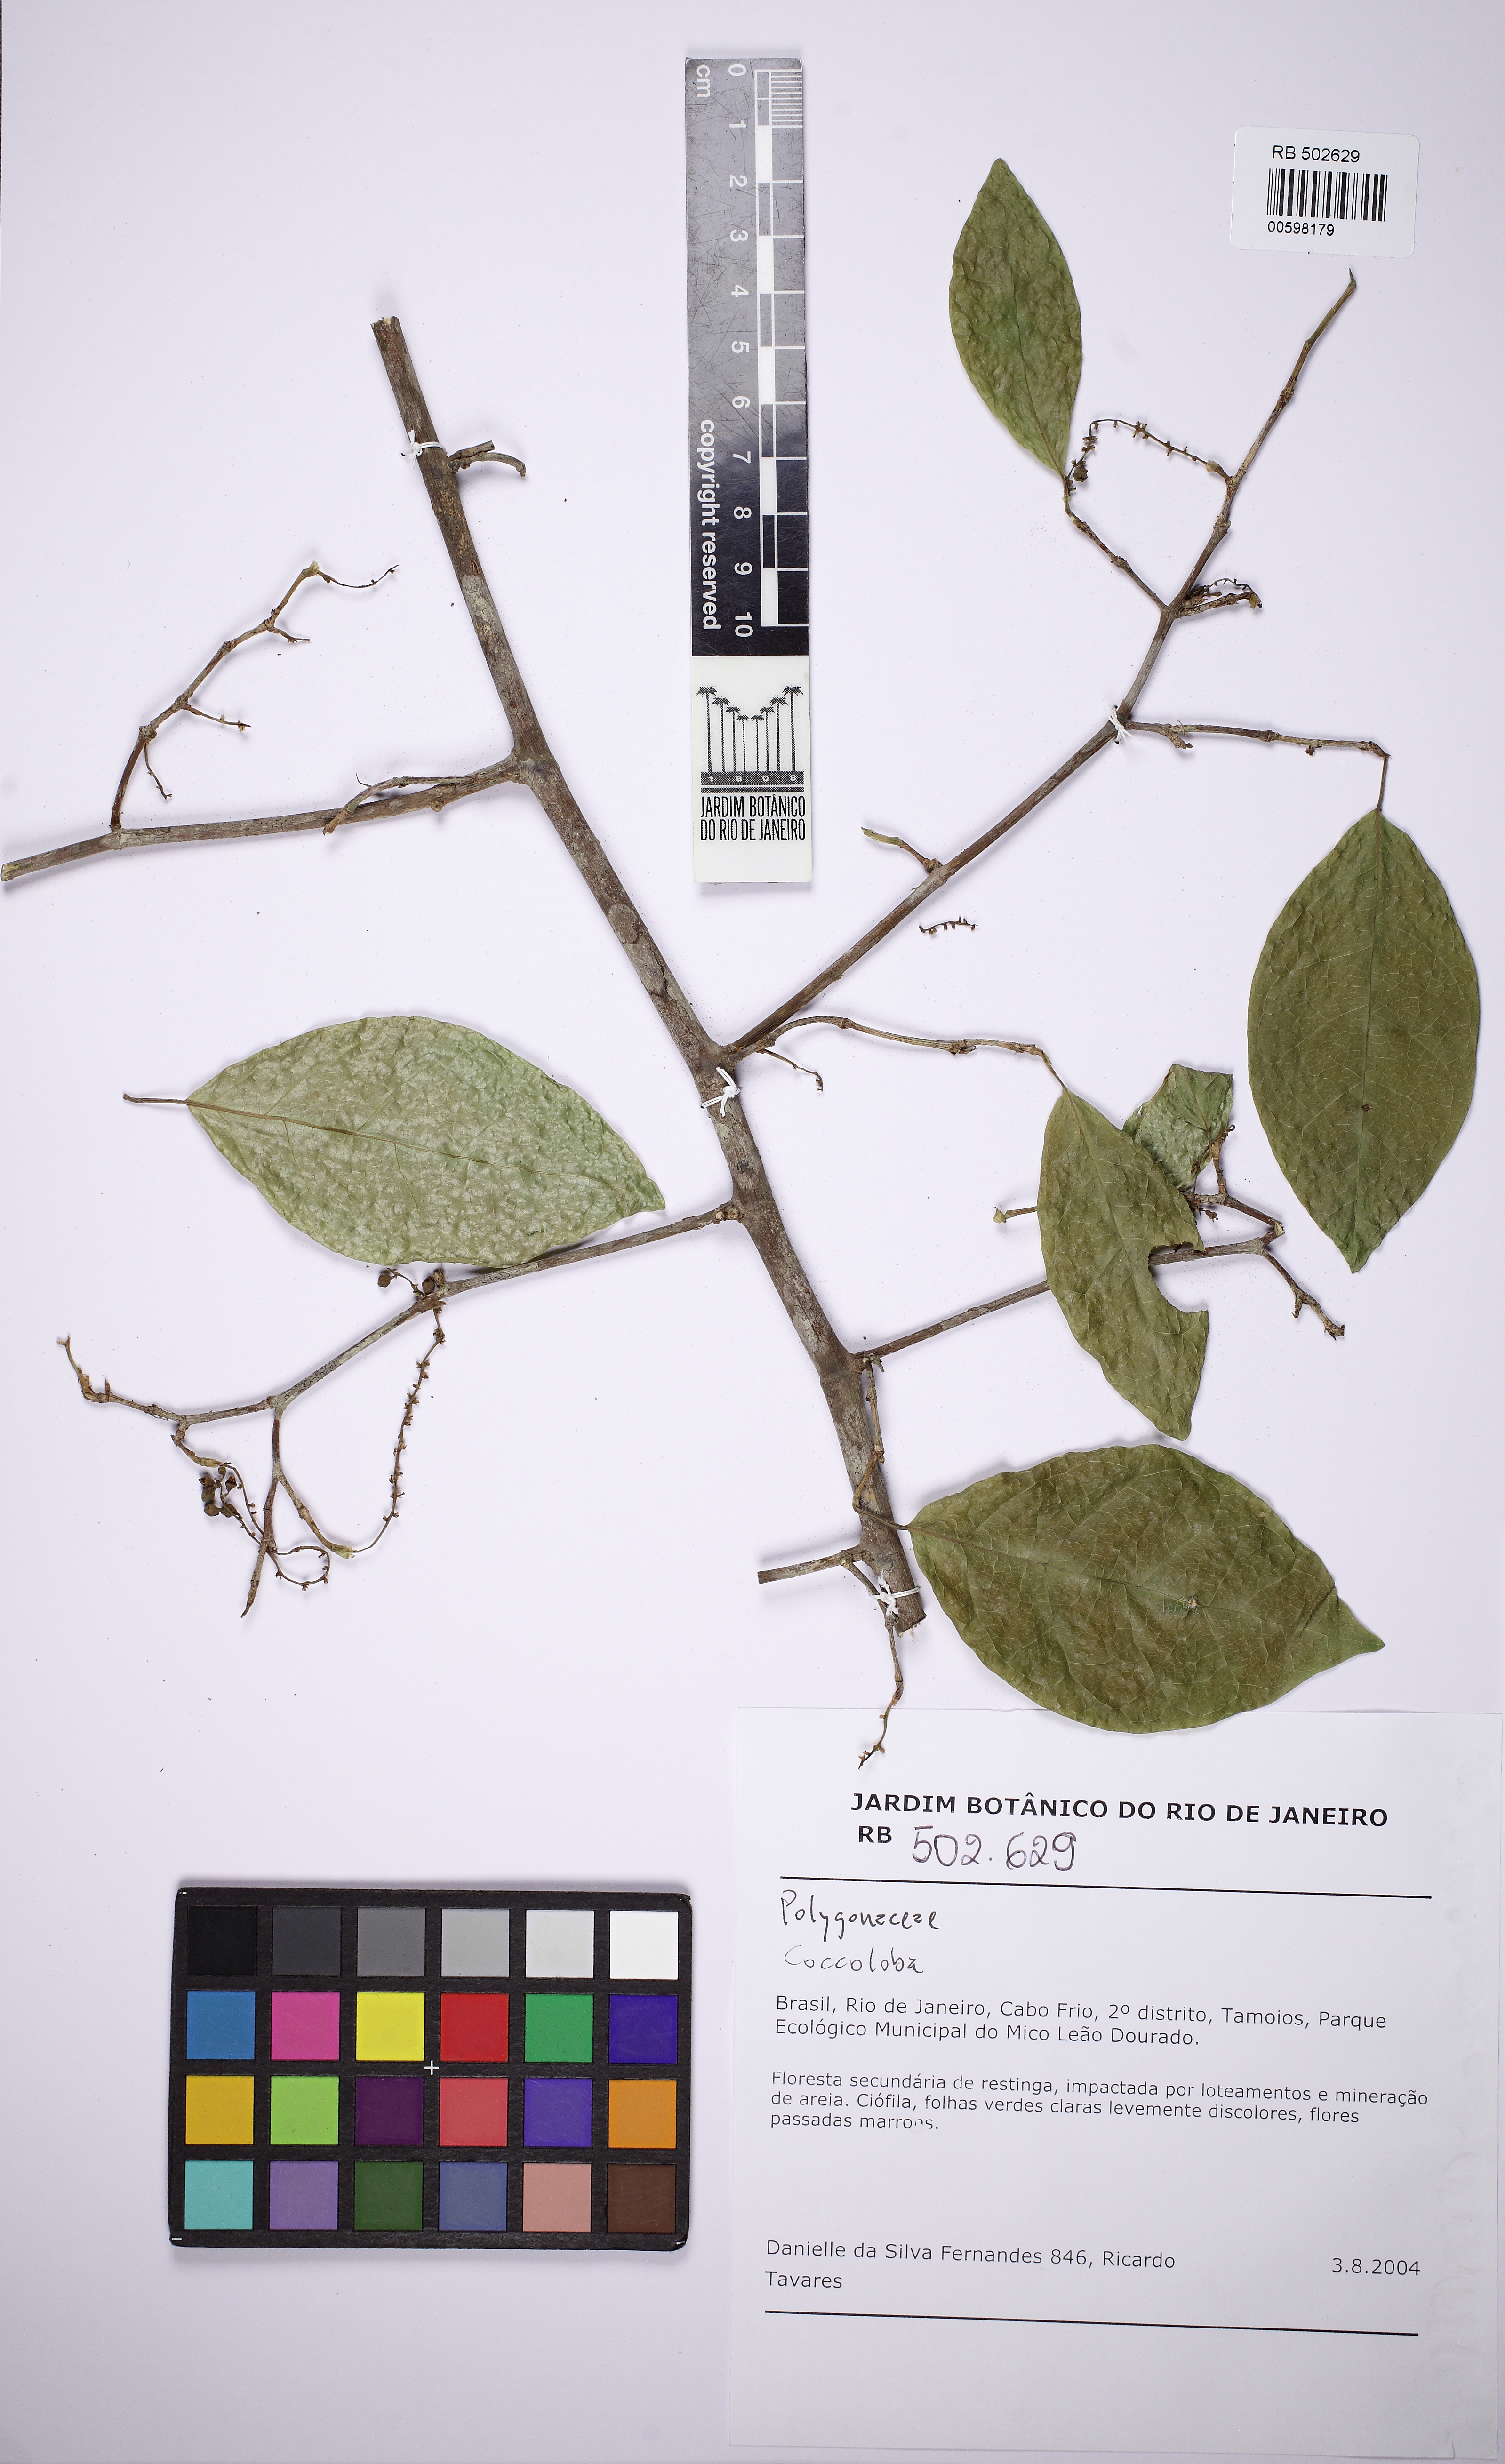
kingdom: Plantae
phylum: Tracheophyta
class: Magnoliopsida
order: Caryophyllales
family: Polygonaceae
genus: Coccoloba
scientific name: Coccoloba
